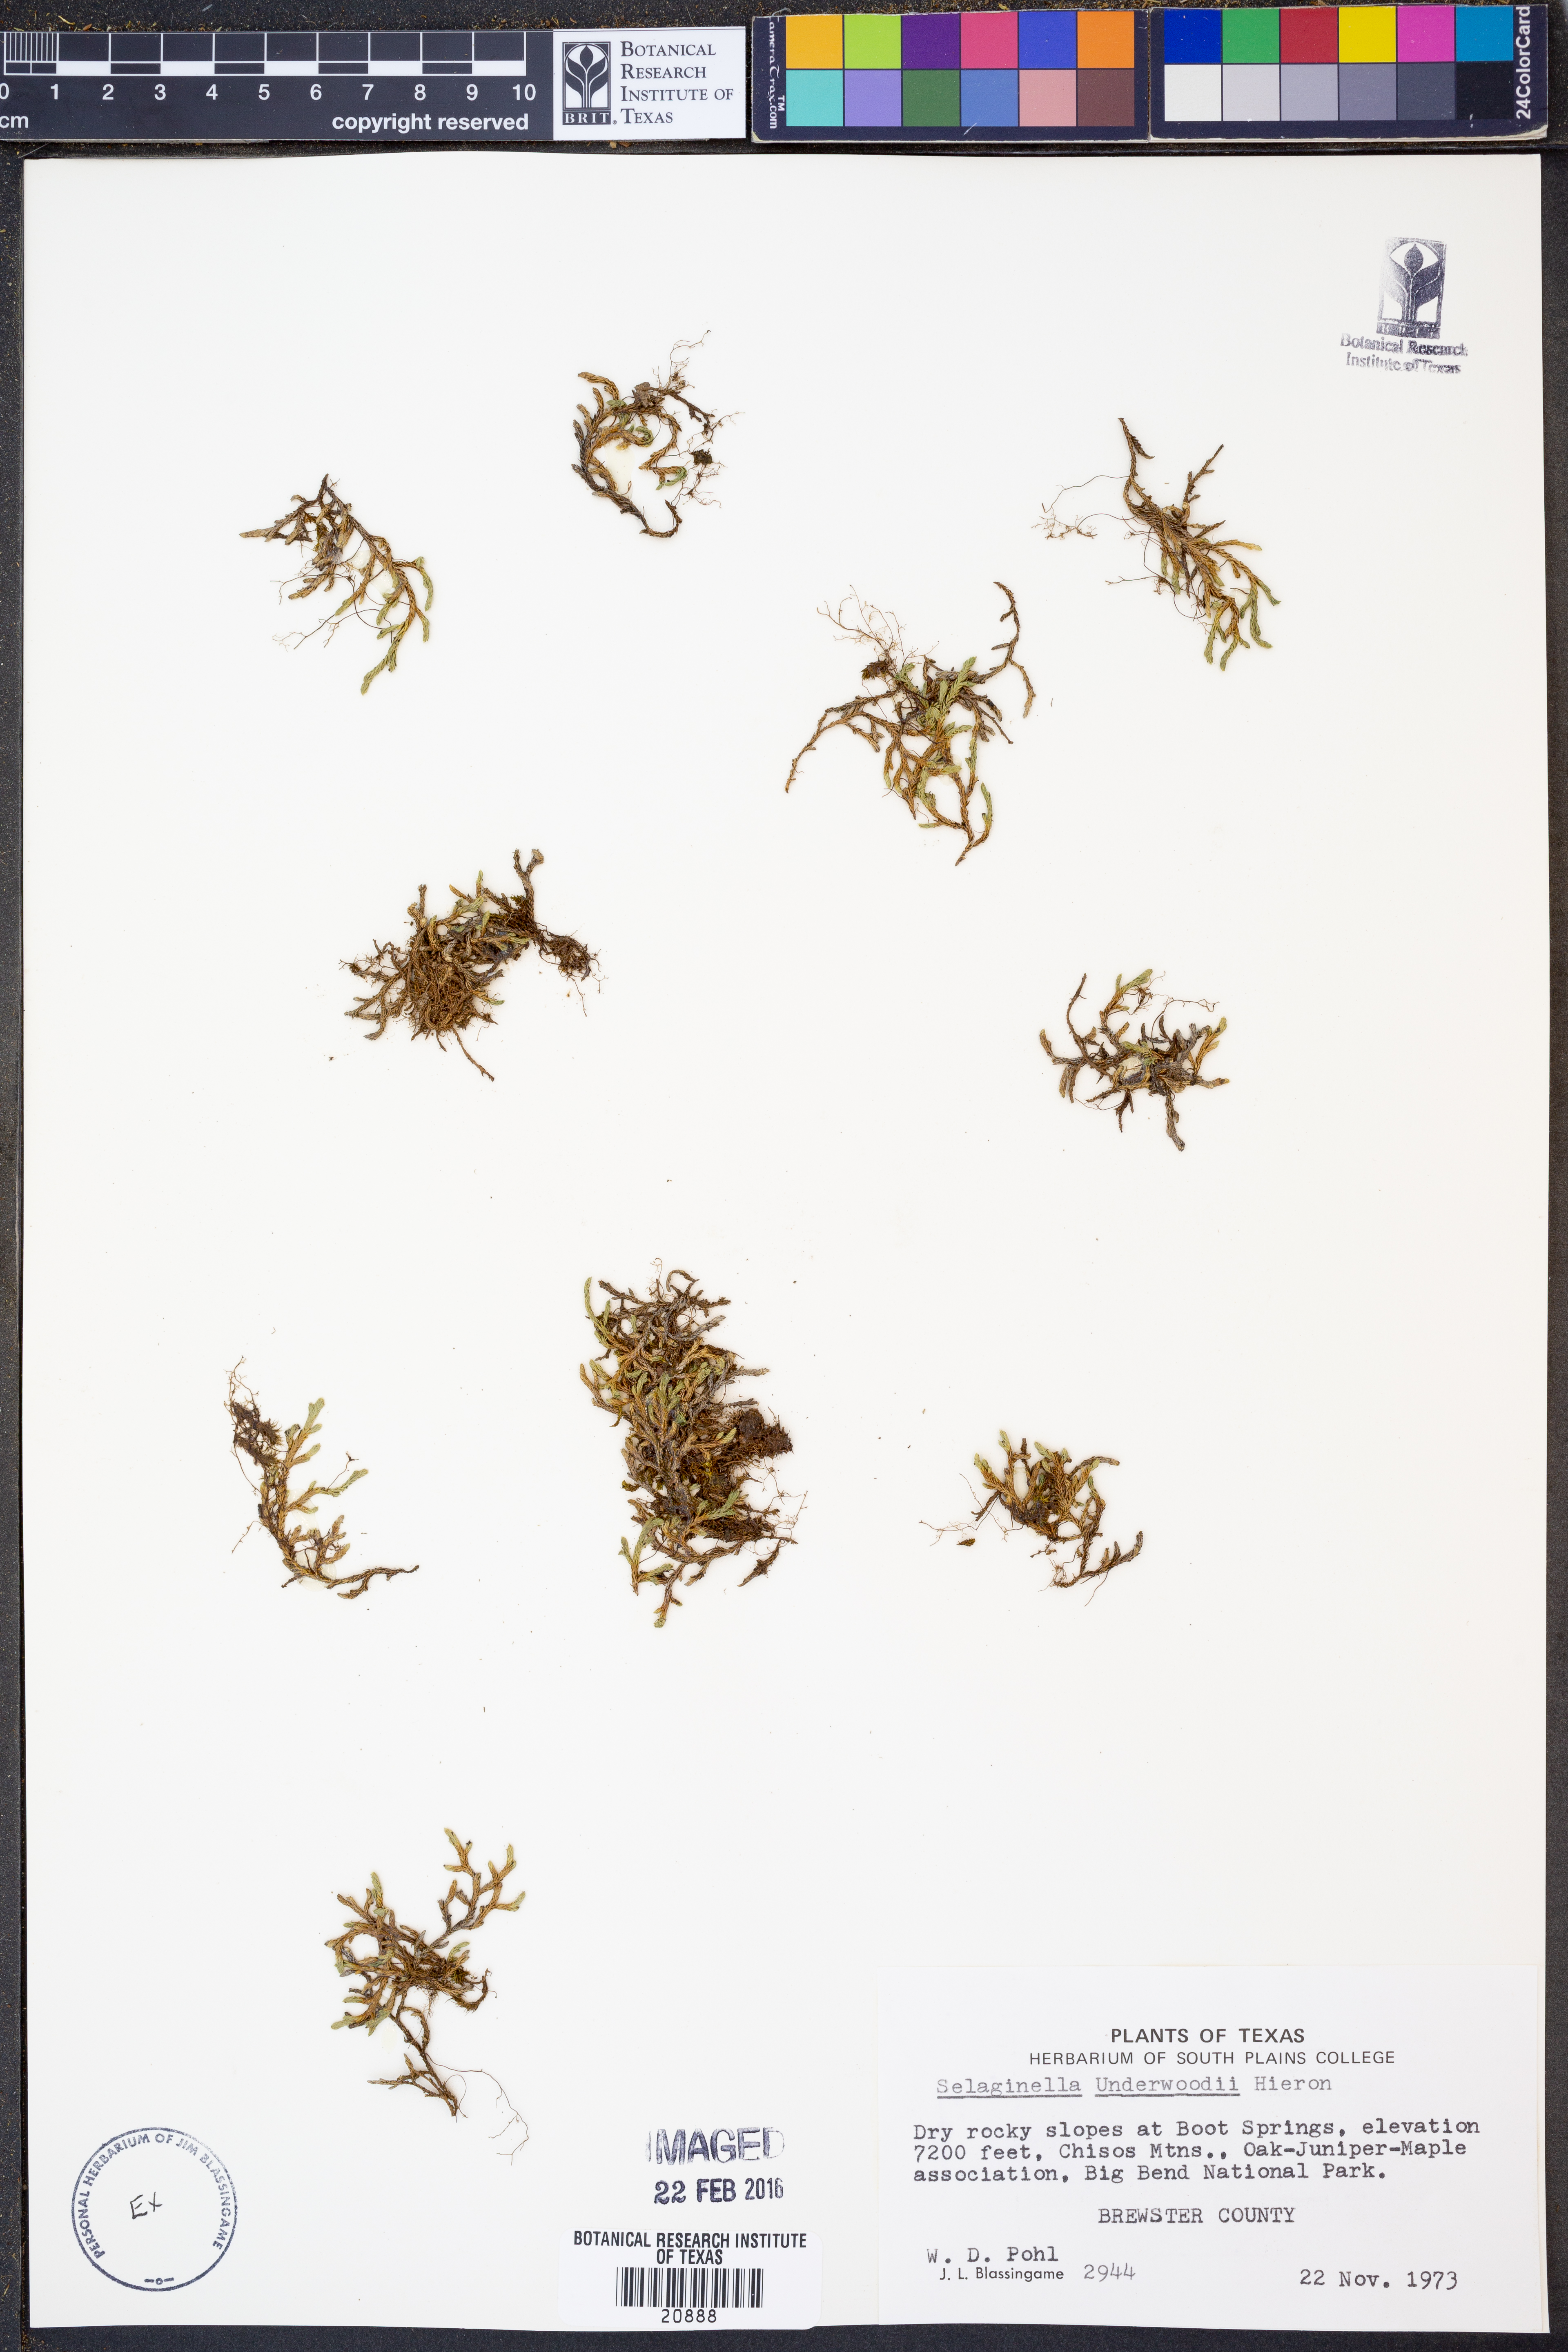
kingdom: Plantae
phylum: Tracheophyta
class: Lycopodiopsida
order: Selaginellales
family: Selaginellaceae
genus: Selaginella
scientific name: Selaginella underwoodii
